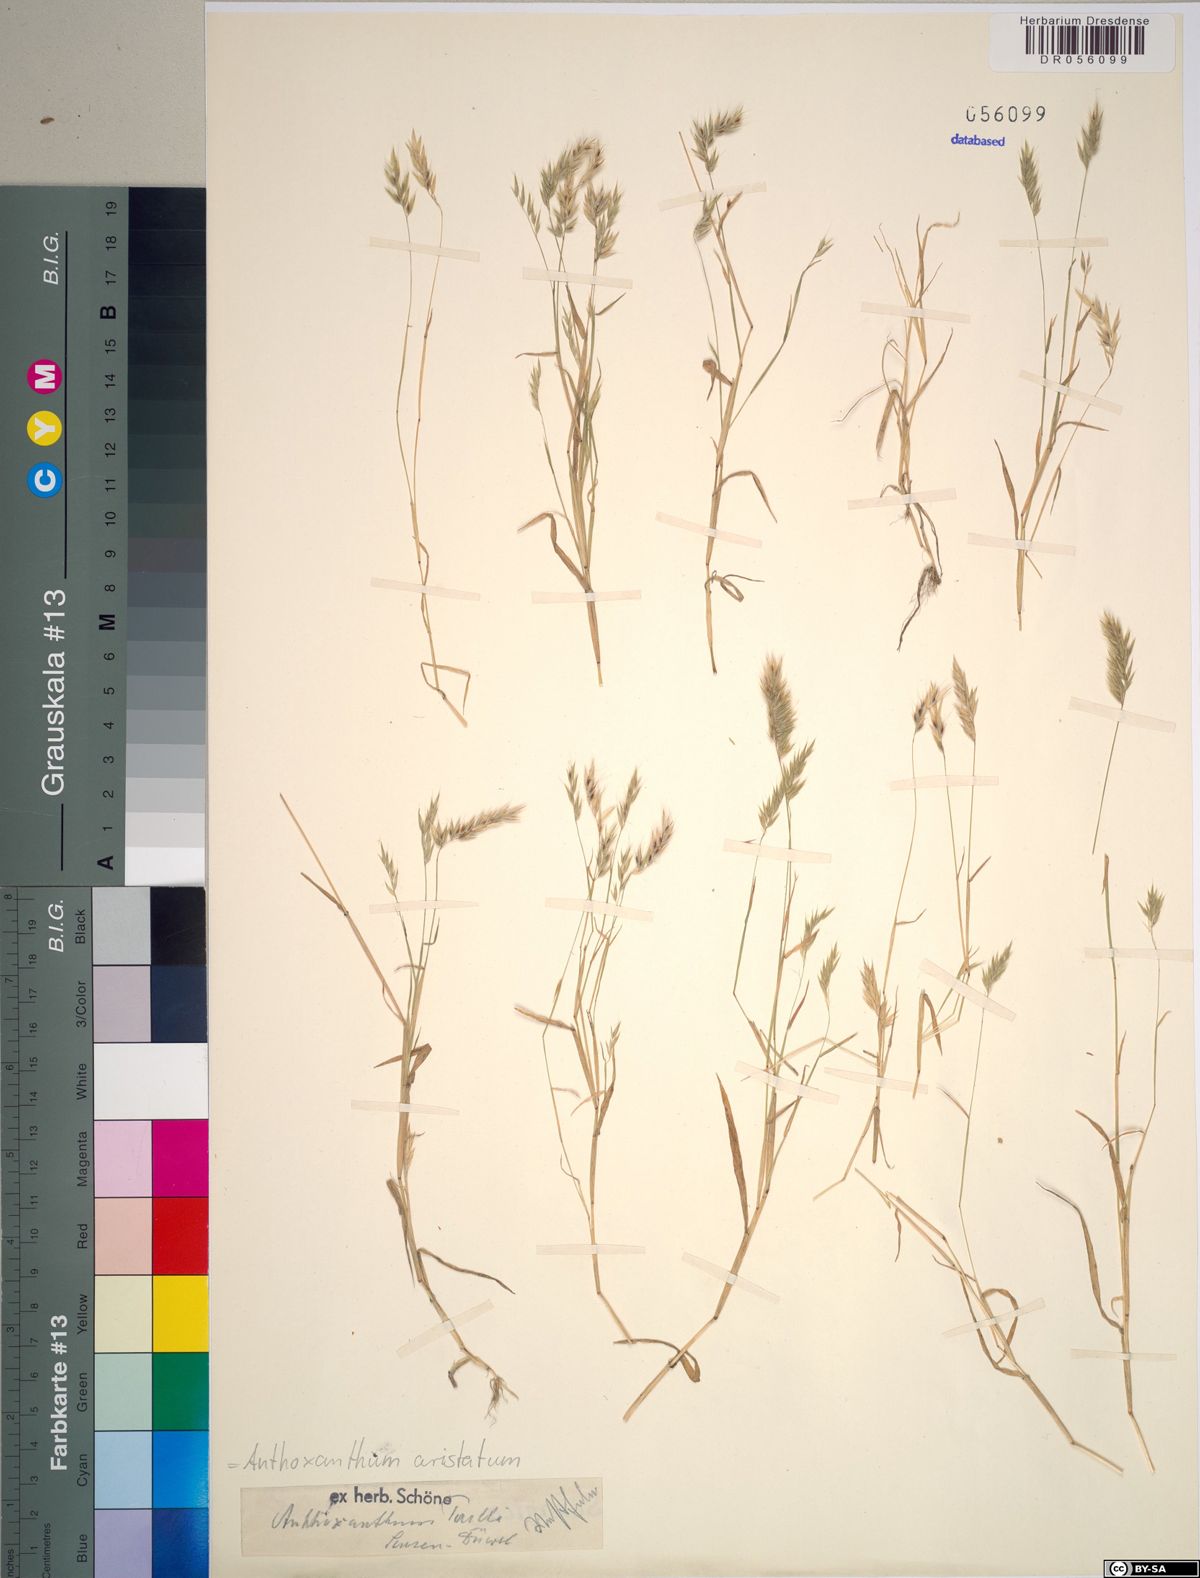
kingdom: Plantae
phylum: Tracheophyta
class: Liliopsida
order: Poales
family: Poaceae
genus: Anthoxanthum
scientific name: Anthoxanthum aristatum
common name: Annual vernal-grass
